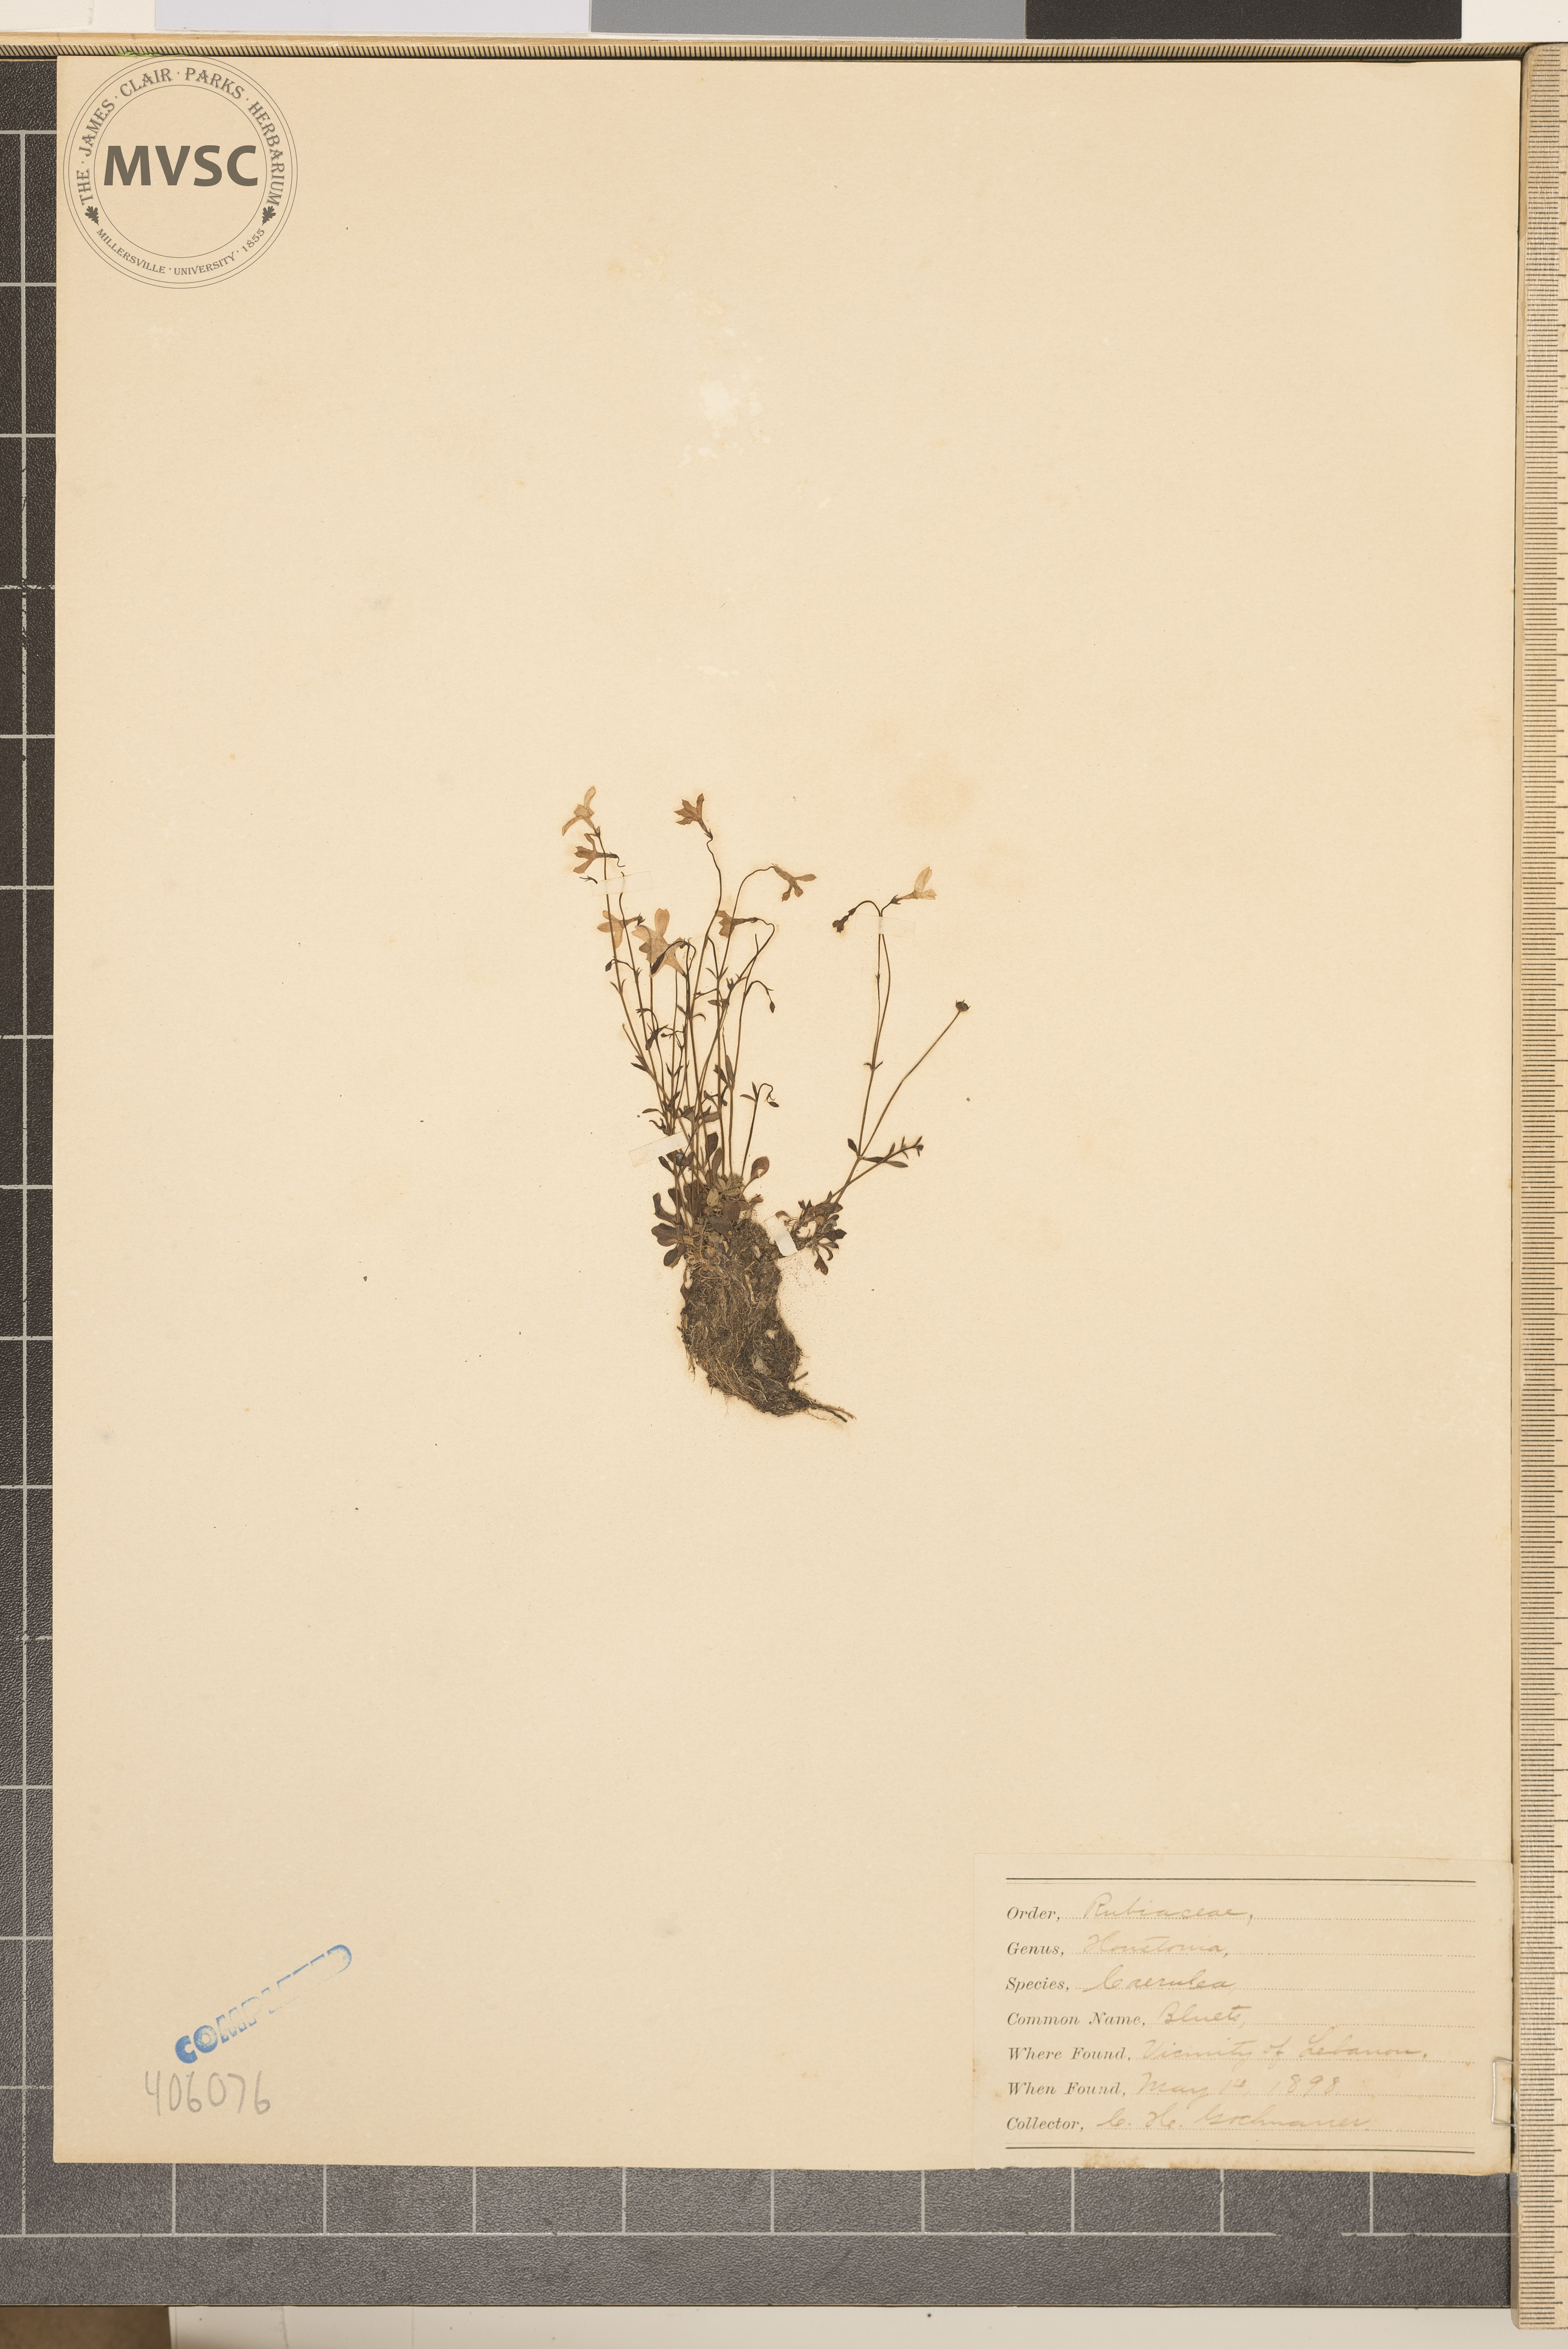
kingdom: Plantae
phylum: Tracheophyta
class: Magnoliopsida
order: Gentianales
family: Rubiaceae
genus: Houstonia
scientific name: Houstonia caerulea
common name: Bluets
